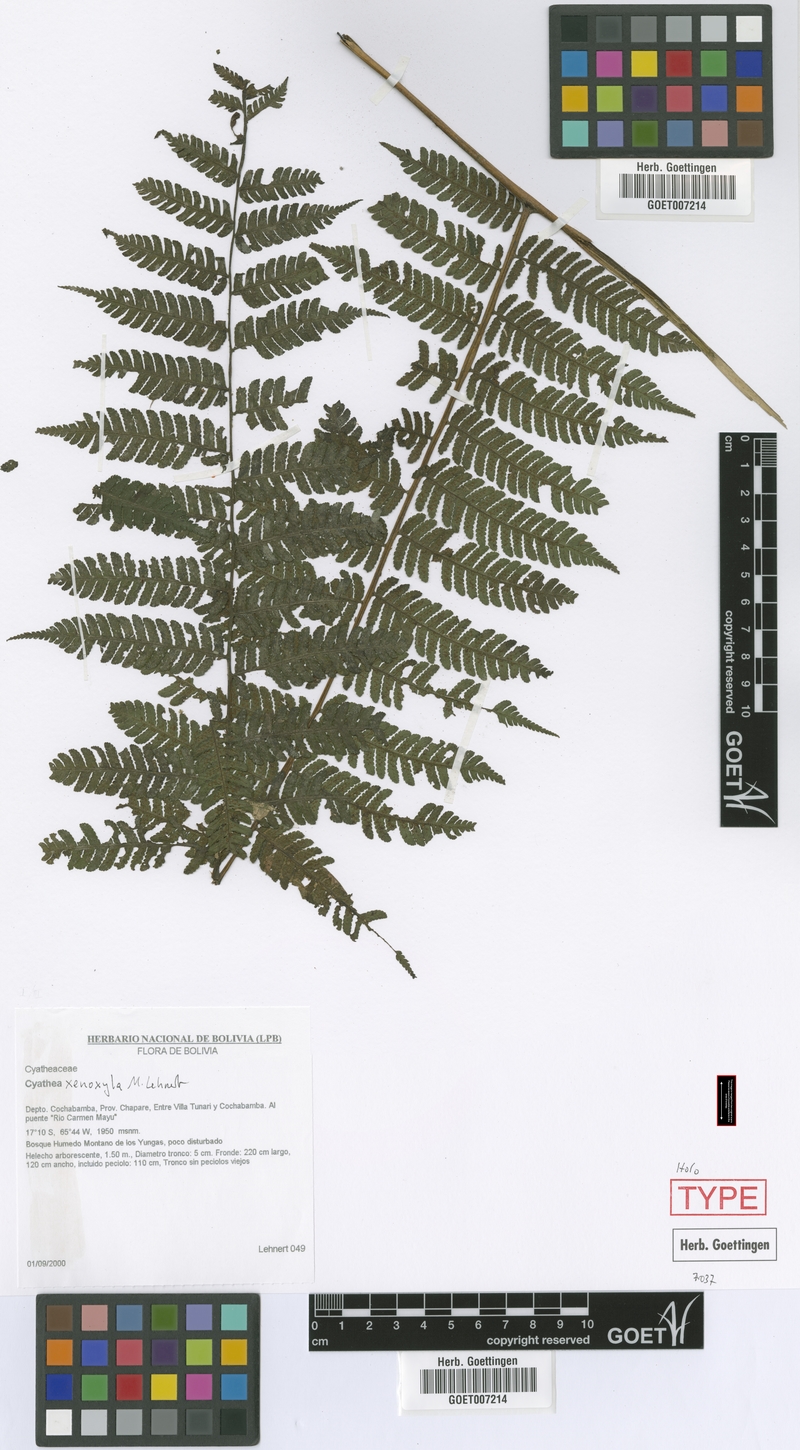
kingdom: Plantae
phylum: Tracheophyta
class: Polypodiopsida
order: Cyatheales
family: Cyatheaceae
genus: Cyathea
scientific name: Cyathea planadae
